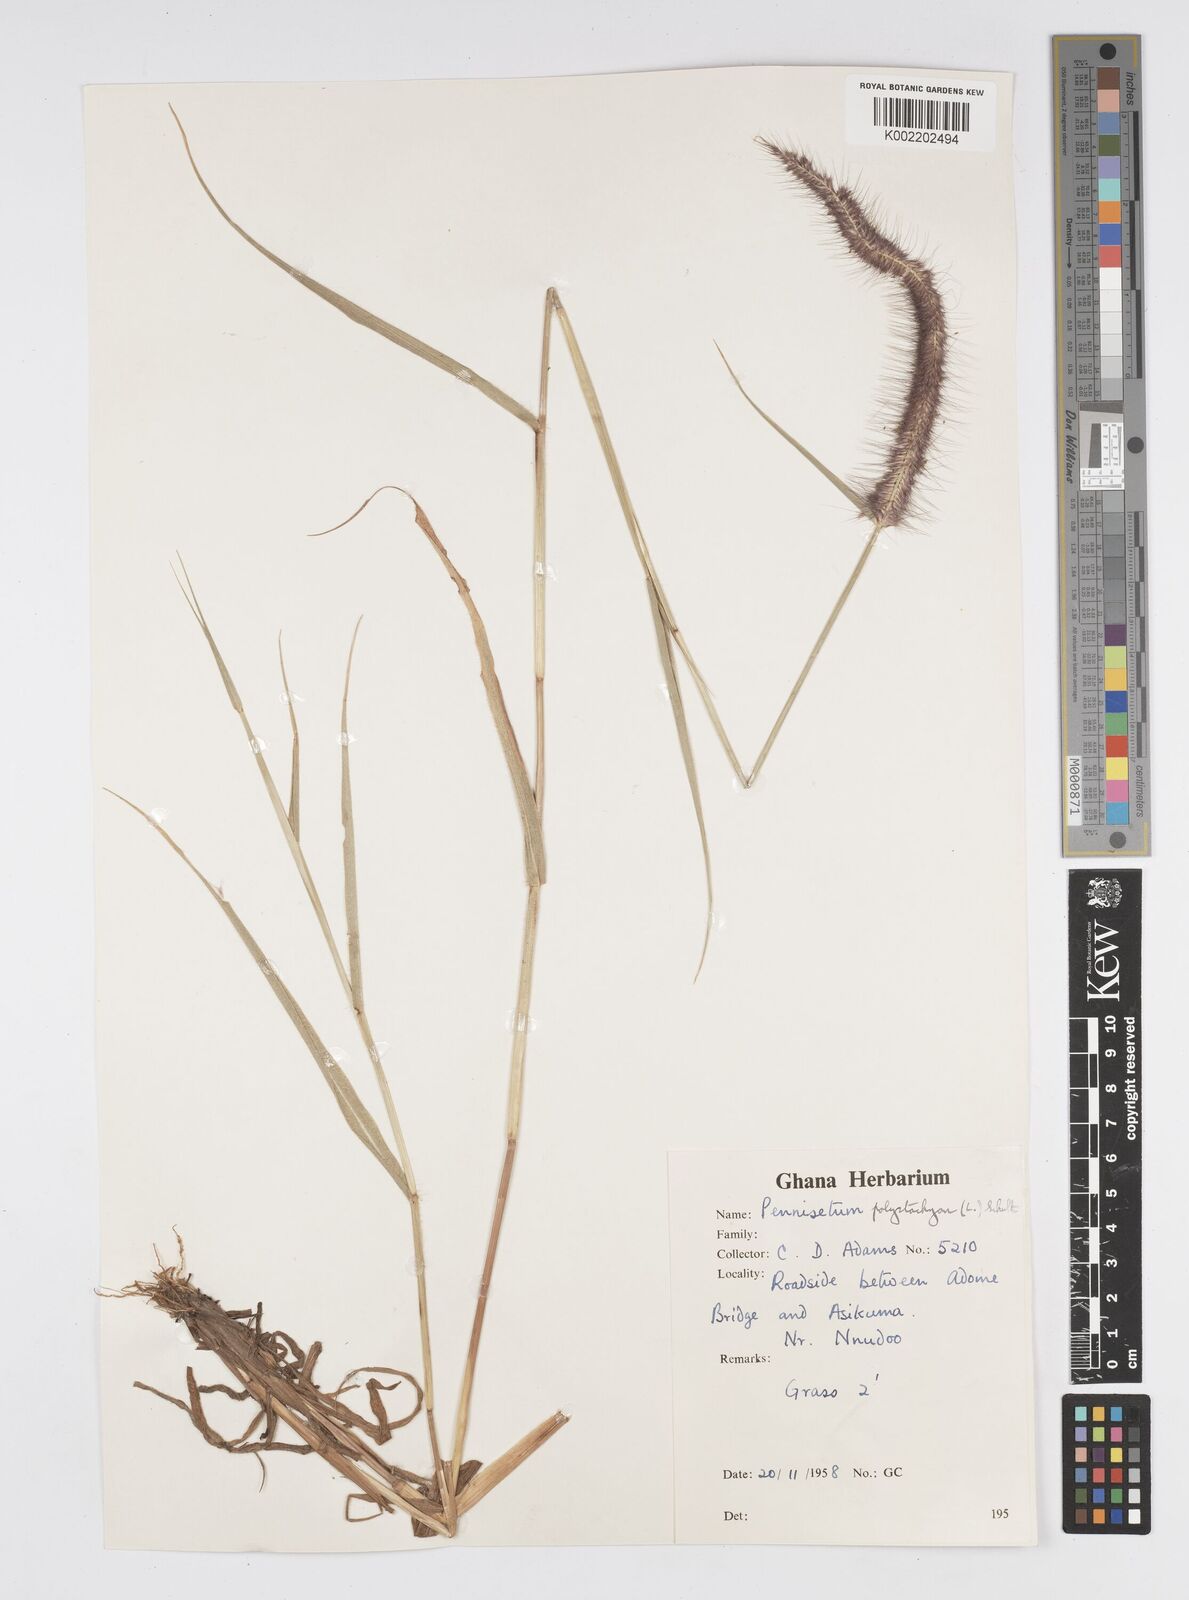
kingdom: Plantae
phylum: Tracheophyta
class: Liliopsida
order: Poales
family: Poaceae
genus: Setaria
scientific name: Setaria parviflora
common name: Knotroot bristle-grass
